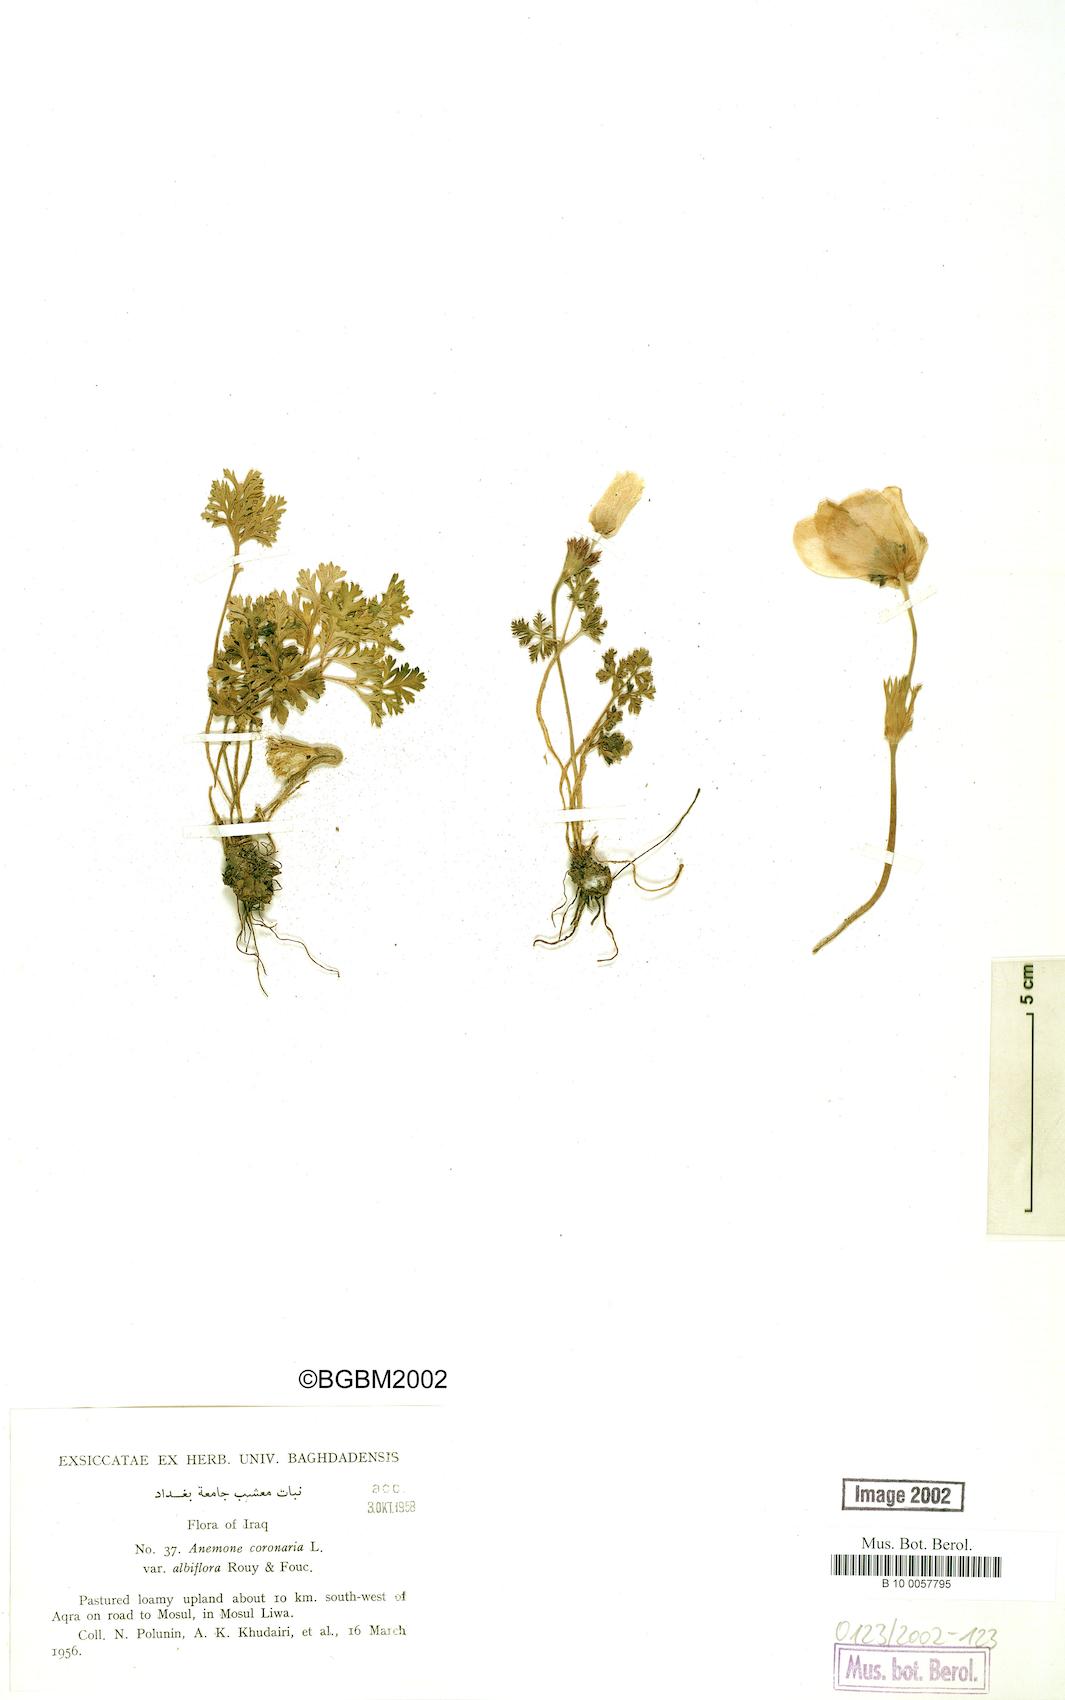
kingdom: Plantae
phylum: Tracheophyta
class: Magnoliopsida
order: Ranunculales
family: Ranunculaceae
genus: Anemone
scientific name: Anemone coronaria
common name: Poppy anemone
